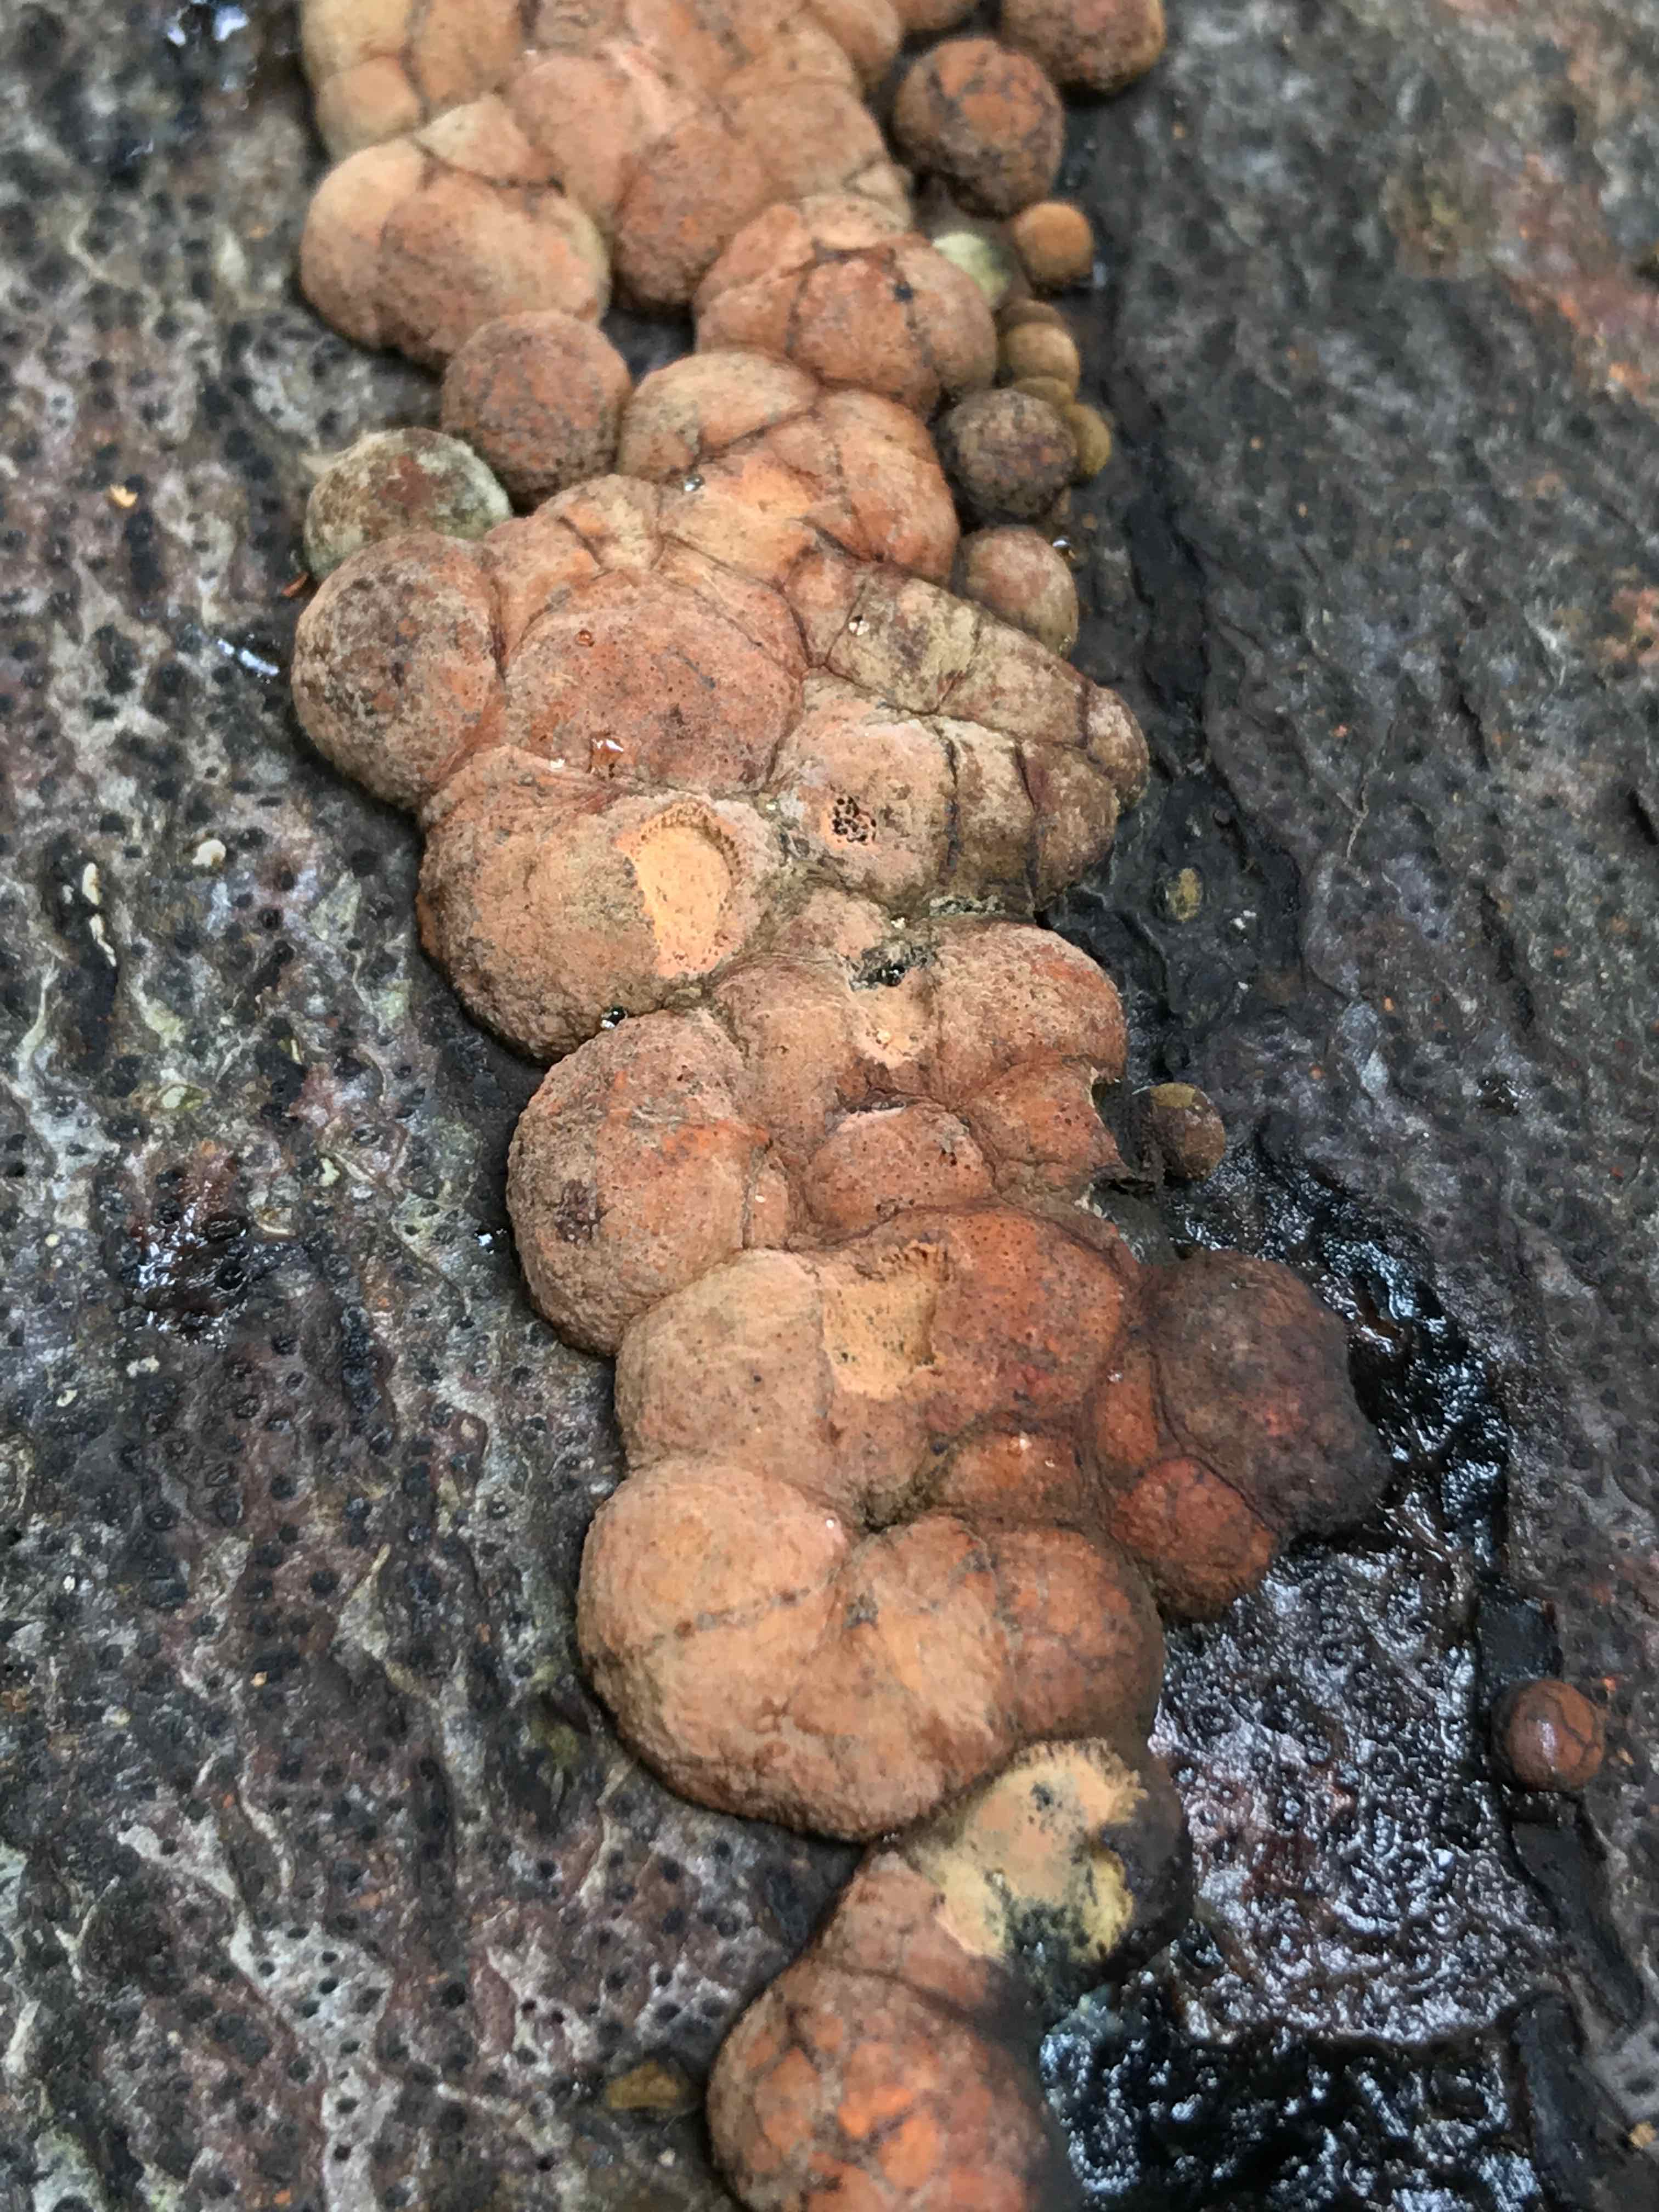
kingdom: Fungi
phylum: Ascomycota
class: Sordariomycetes
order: Xylariales
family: Hypoxylaceae
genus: Hypoxylon
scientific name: Hypoxylon fragiforme
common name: kuljordbær
